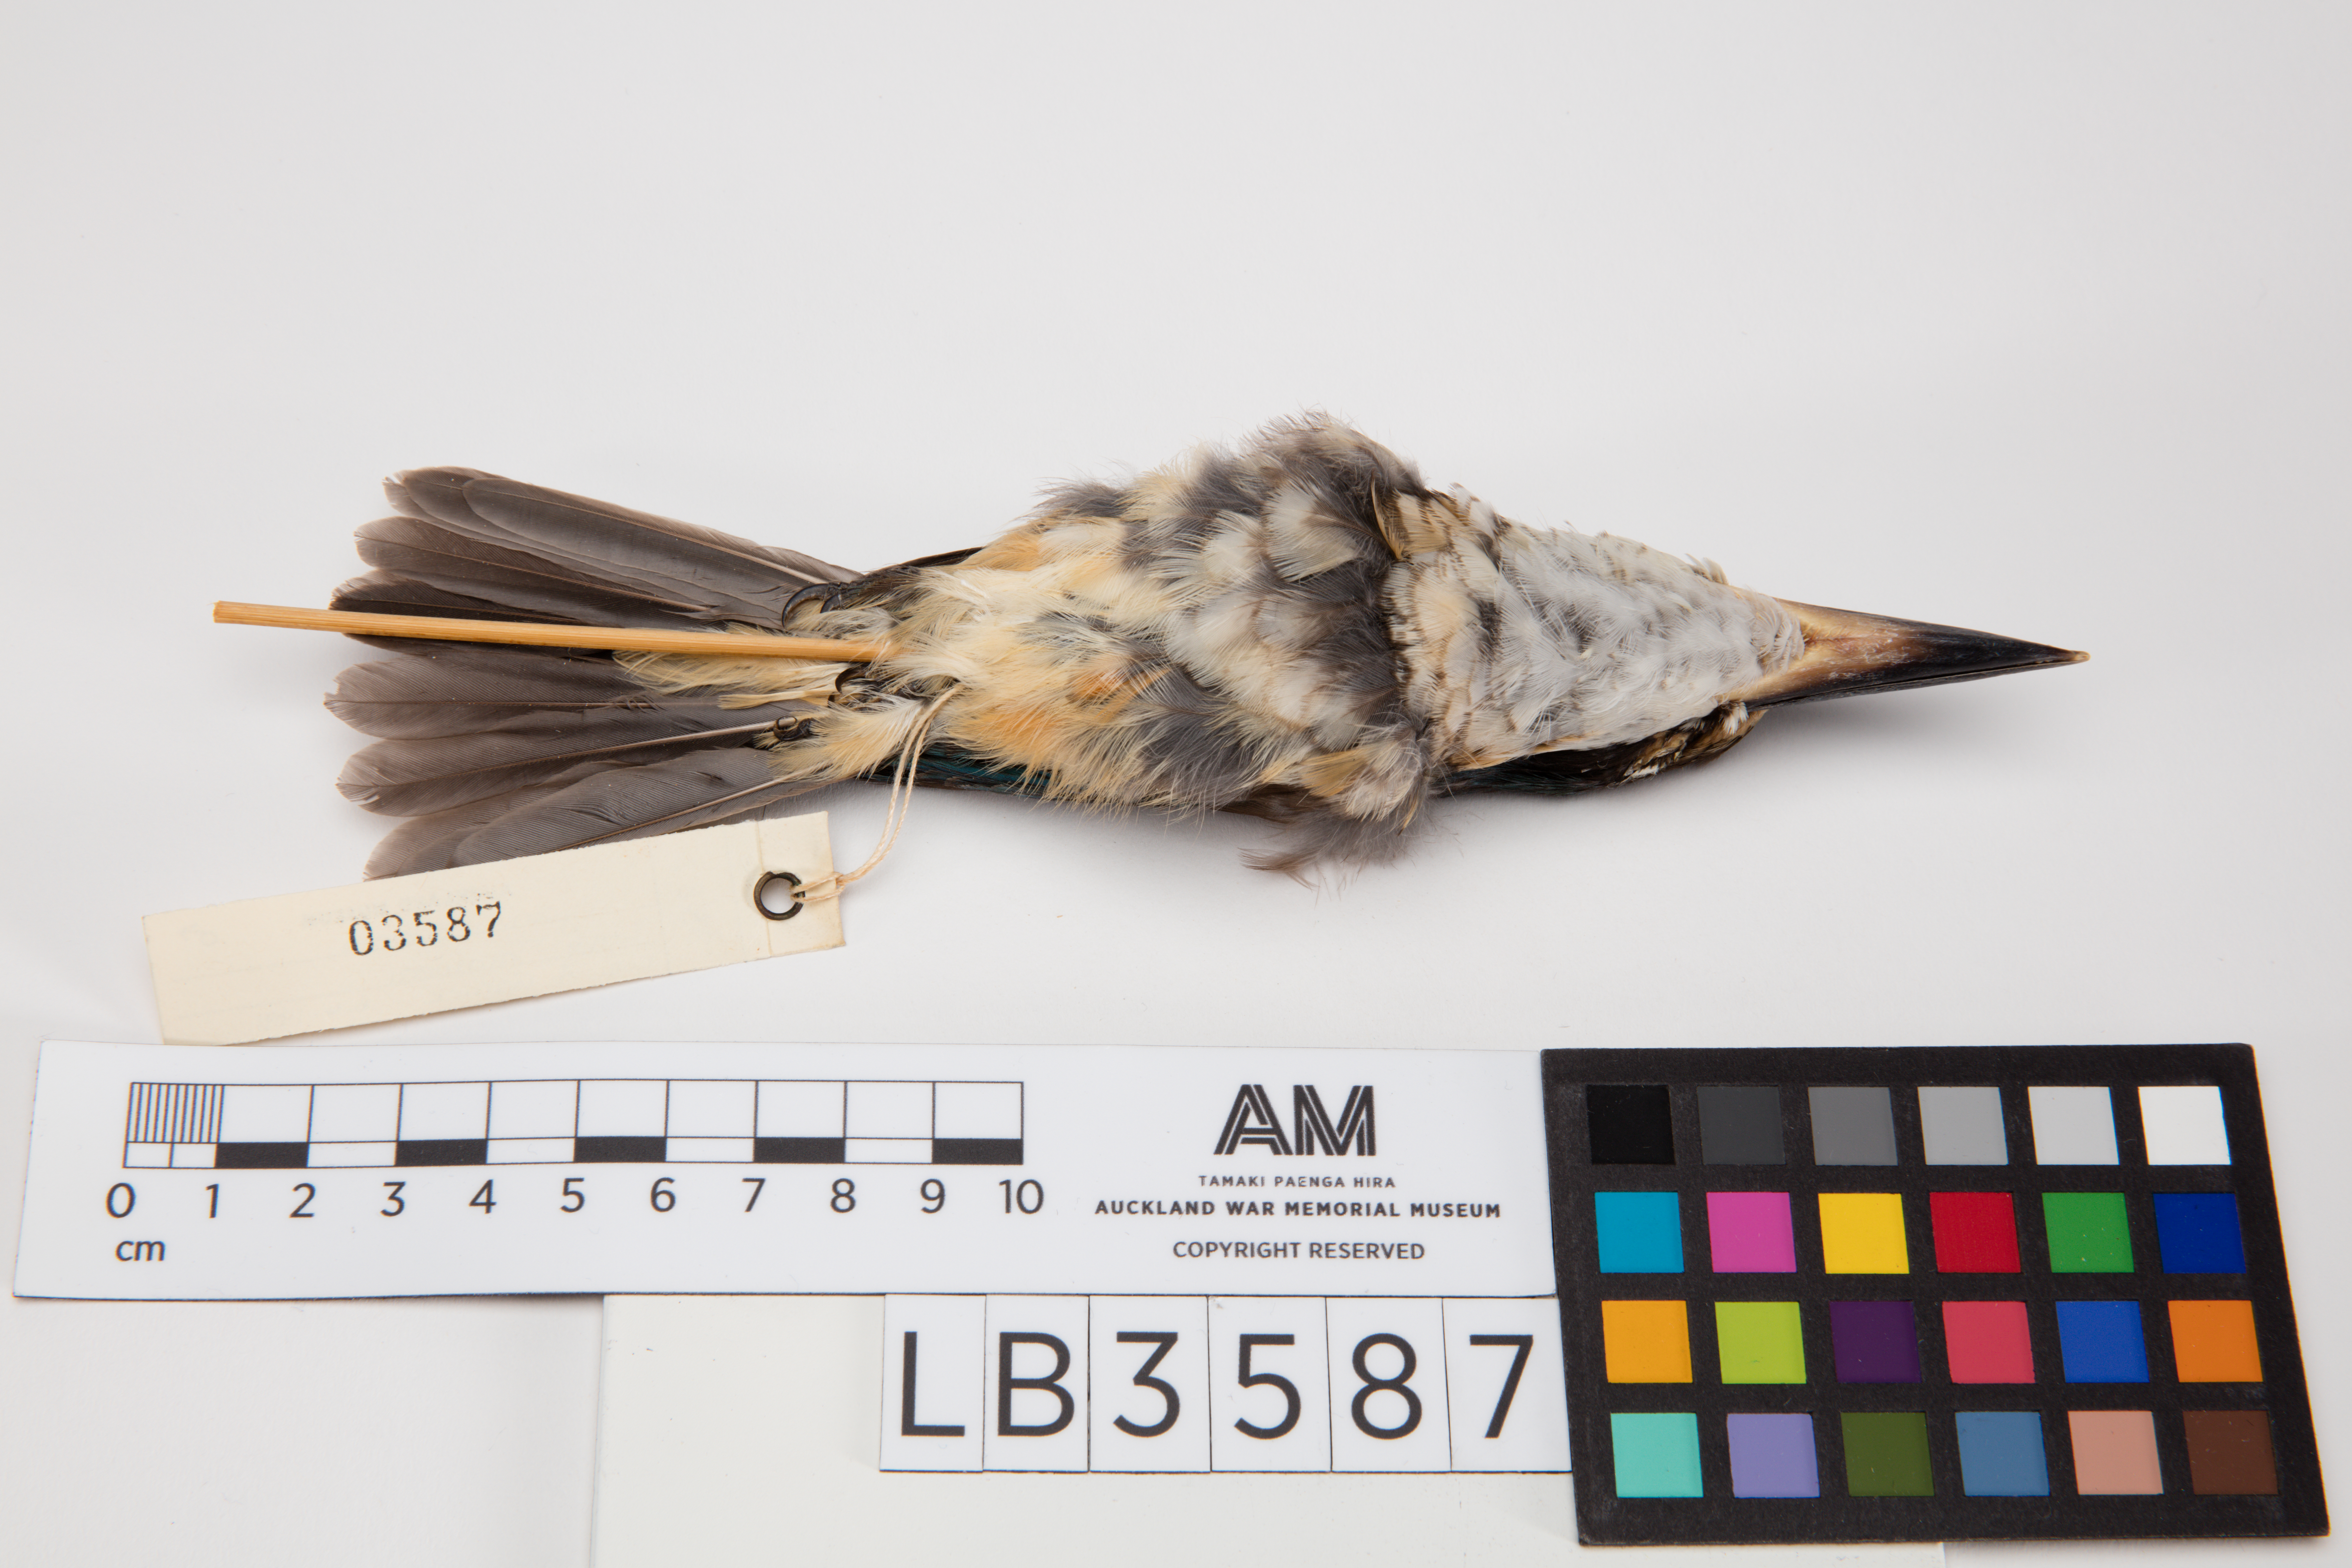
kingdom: Animalia
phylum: Chordata
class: Aves
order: Coraciiformes
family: Alcedinidae
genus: Todiramphus
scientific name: Todiramphus sanctus
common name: Sacred kingfisher
